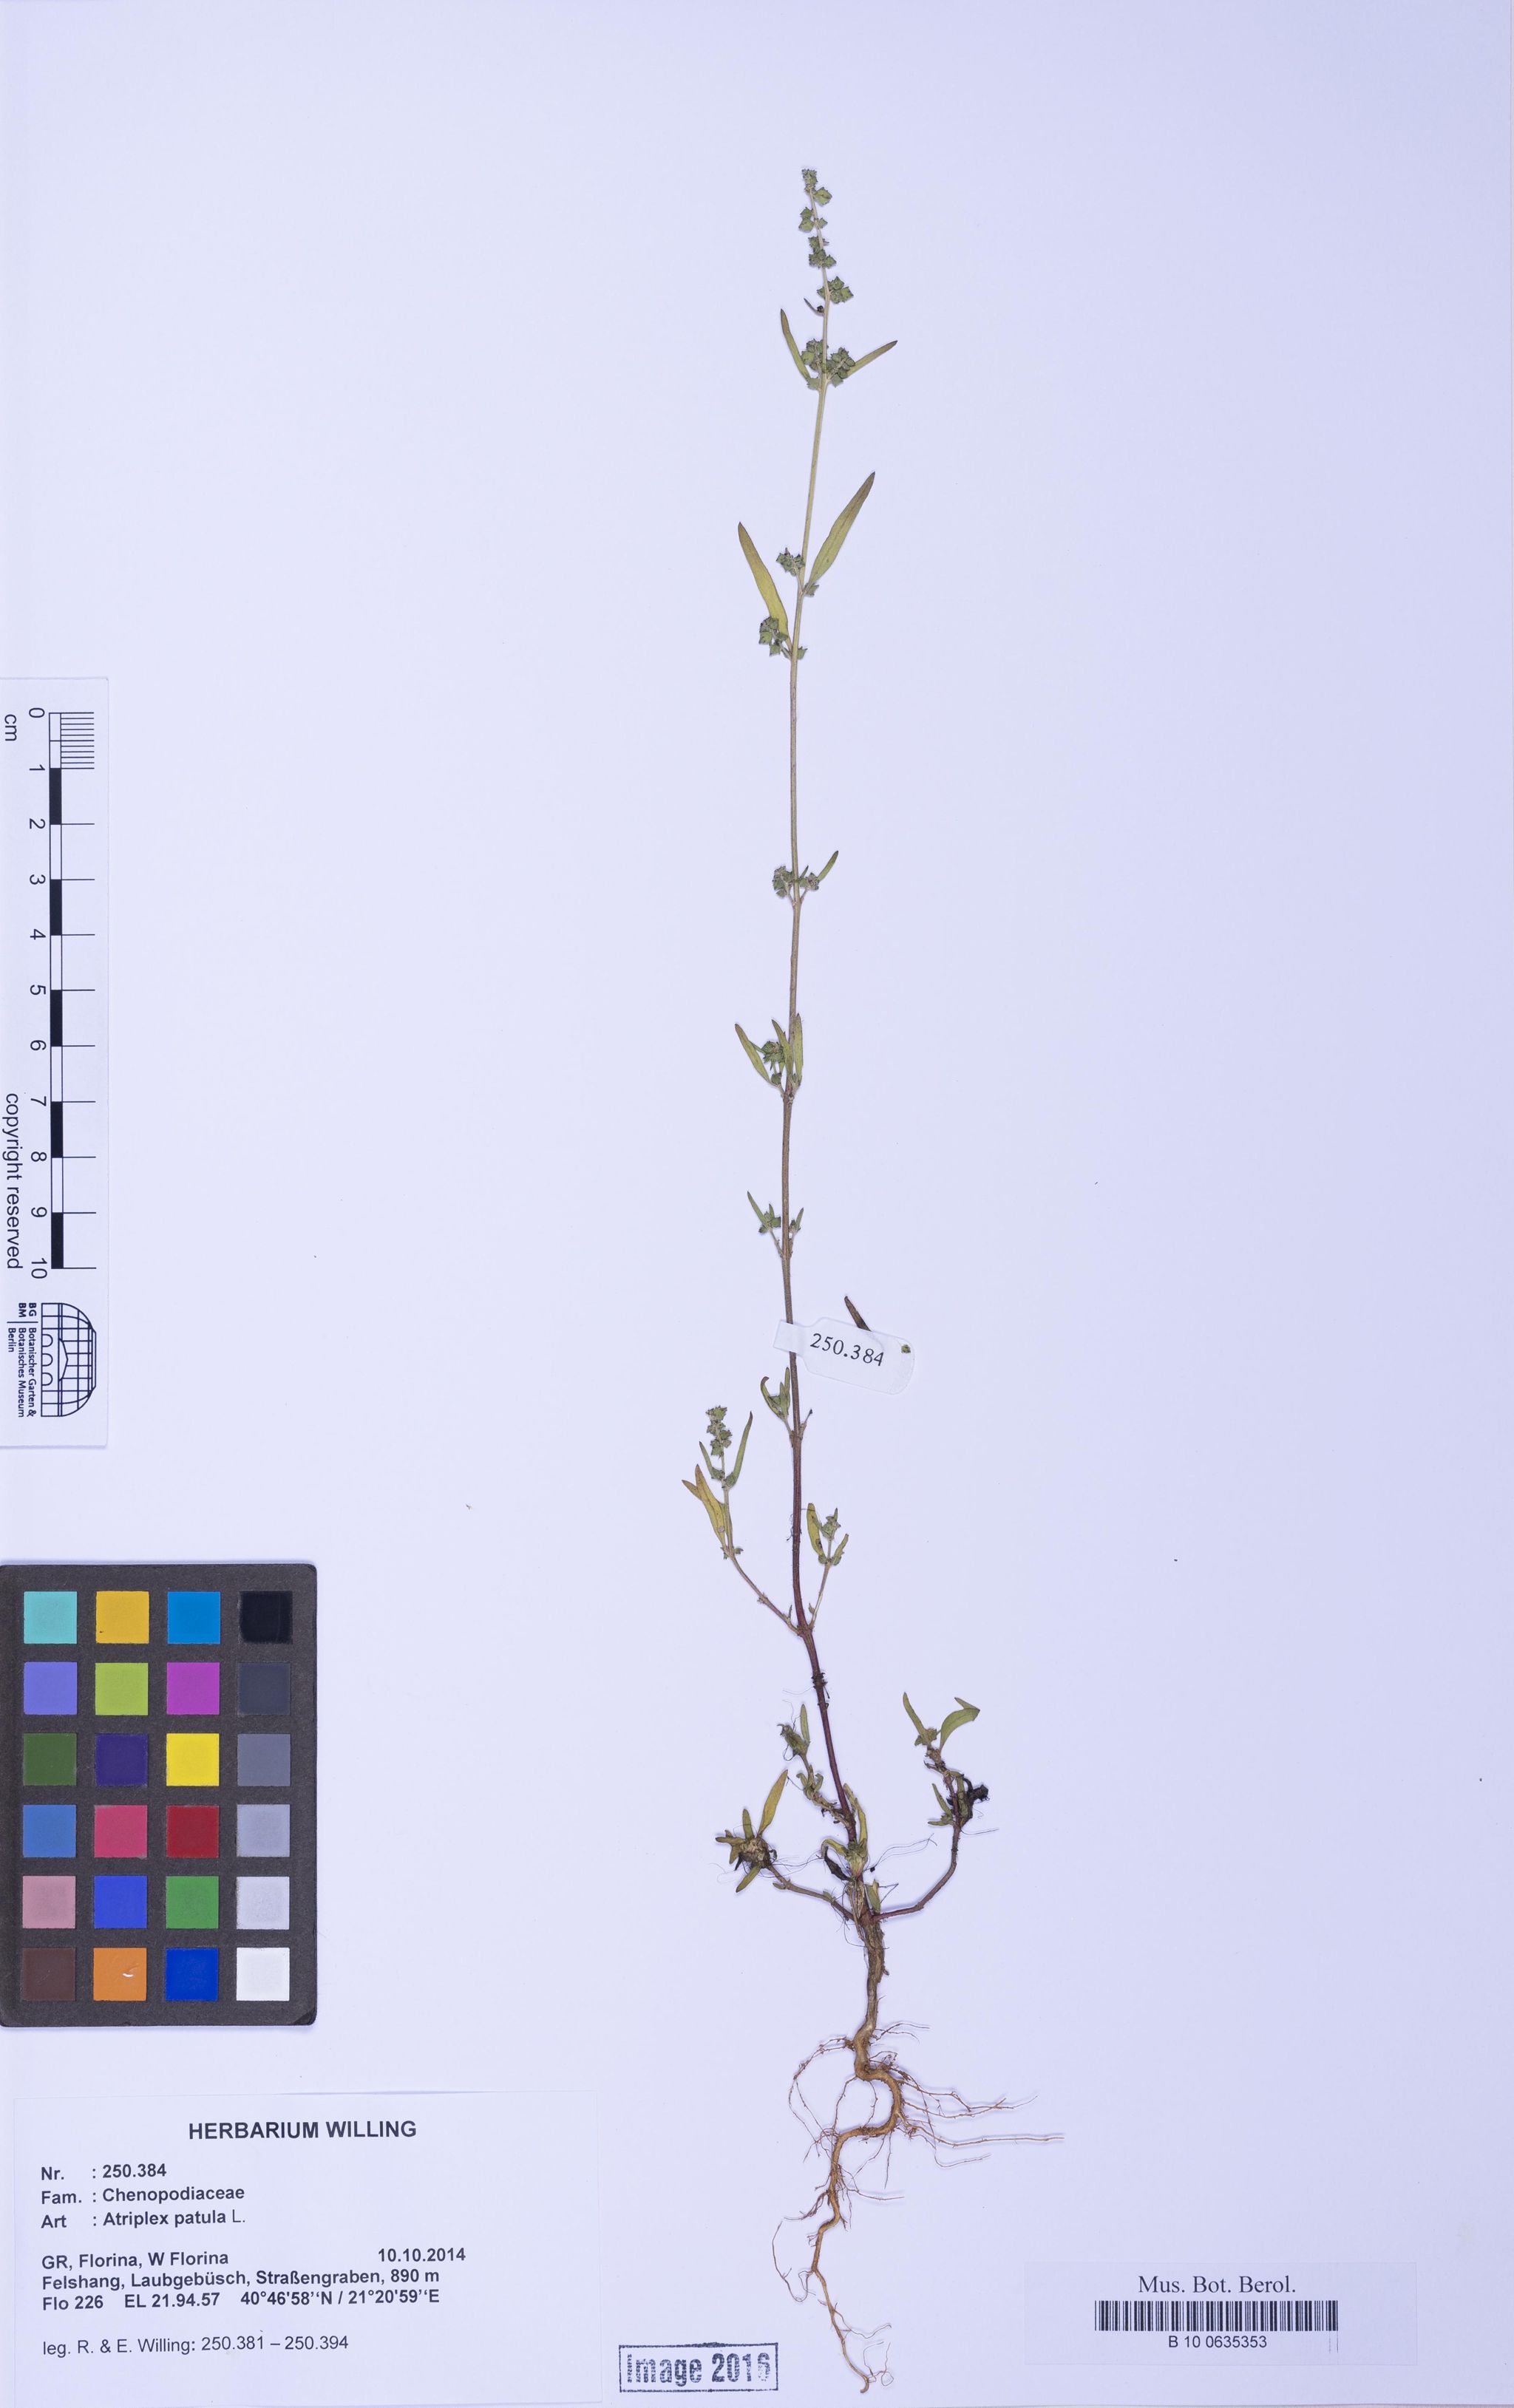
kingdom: Plantae
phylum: Tracheophyta
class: Magnoliopsida
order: Caryophyllales
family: Amaranthaceae
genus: Atriplex
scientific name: Atriplex patula
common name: Common orache
